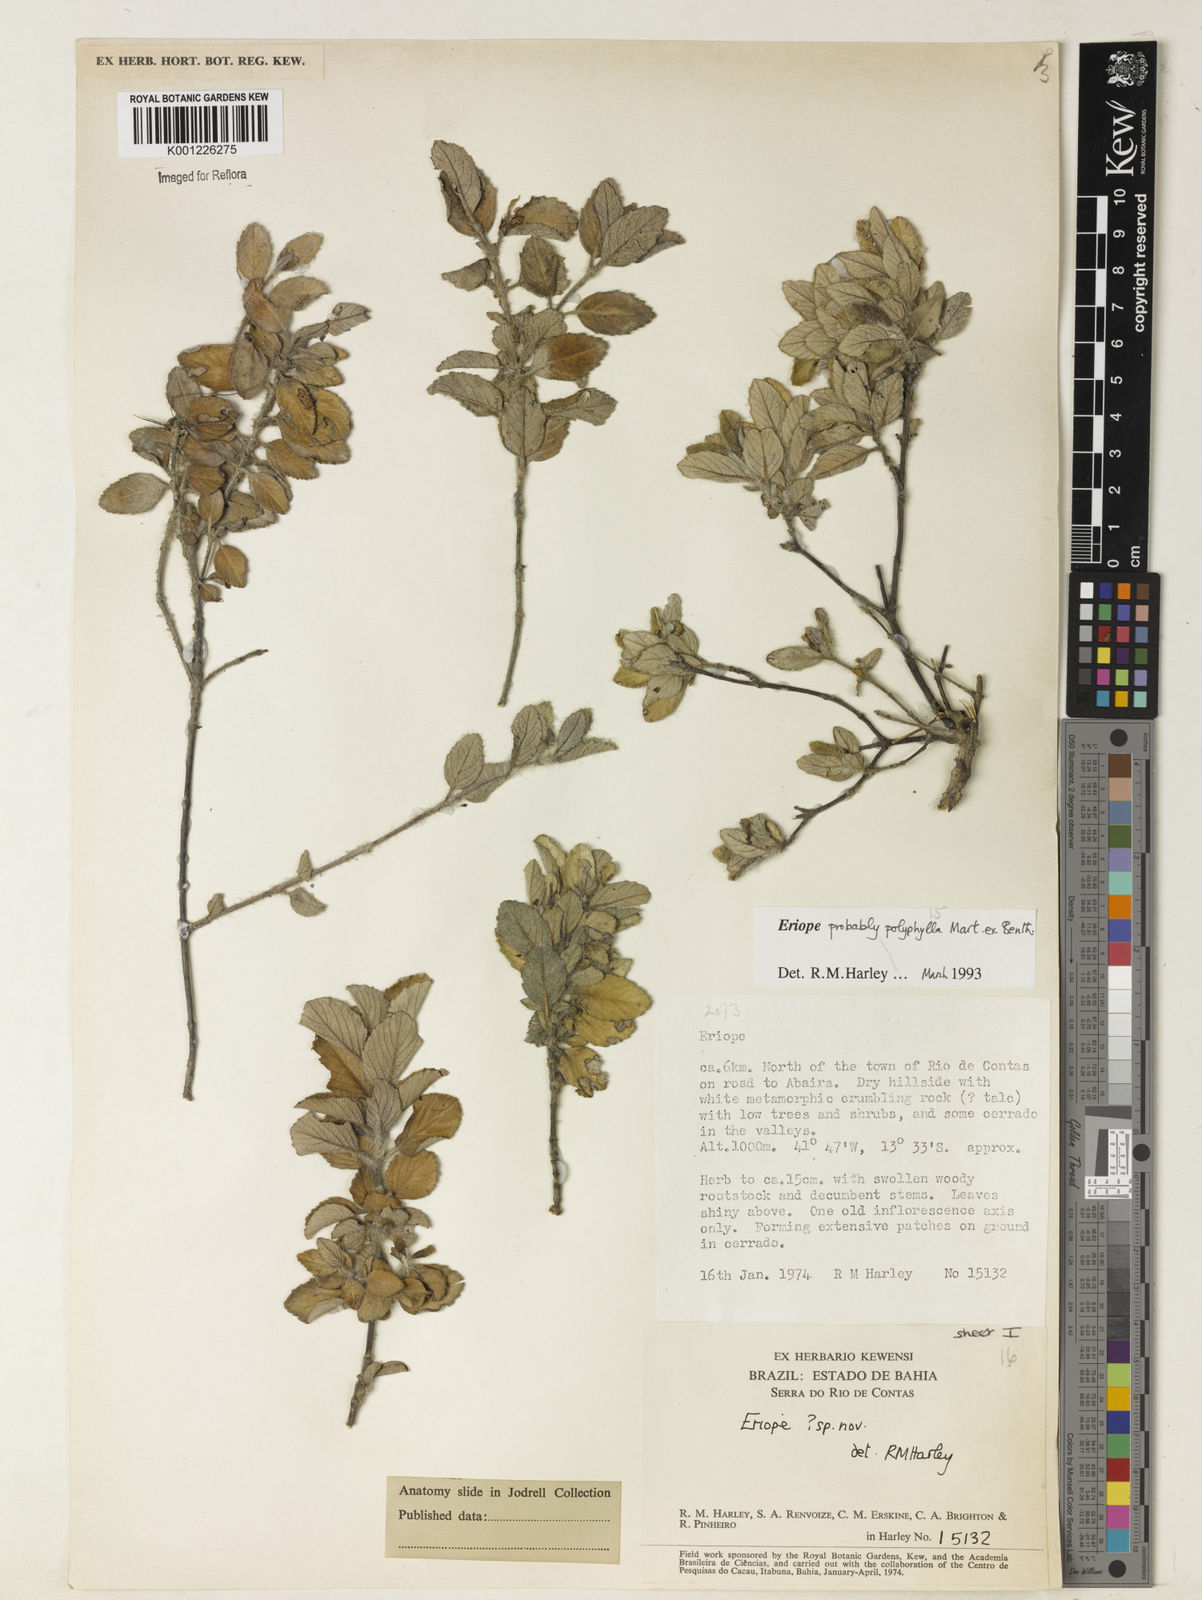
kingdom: Plantae
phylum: Tracheophyta
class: Magnoliopsida
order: Lamiales
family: Lamiaceae
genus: Eriope
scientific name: Eriope polyphylla
